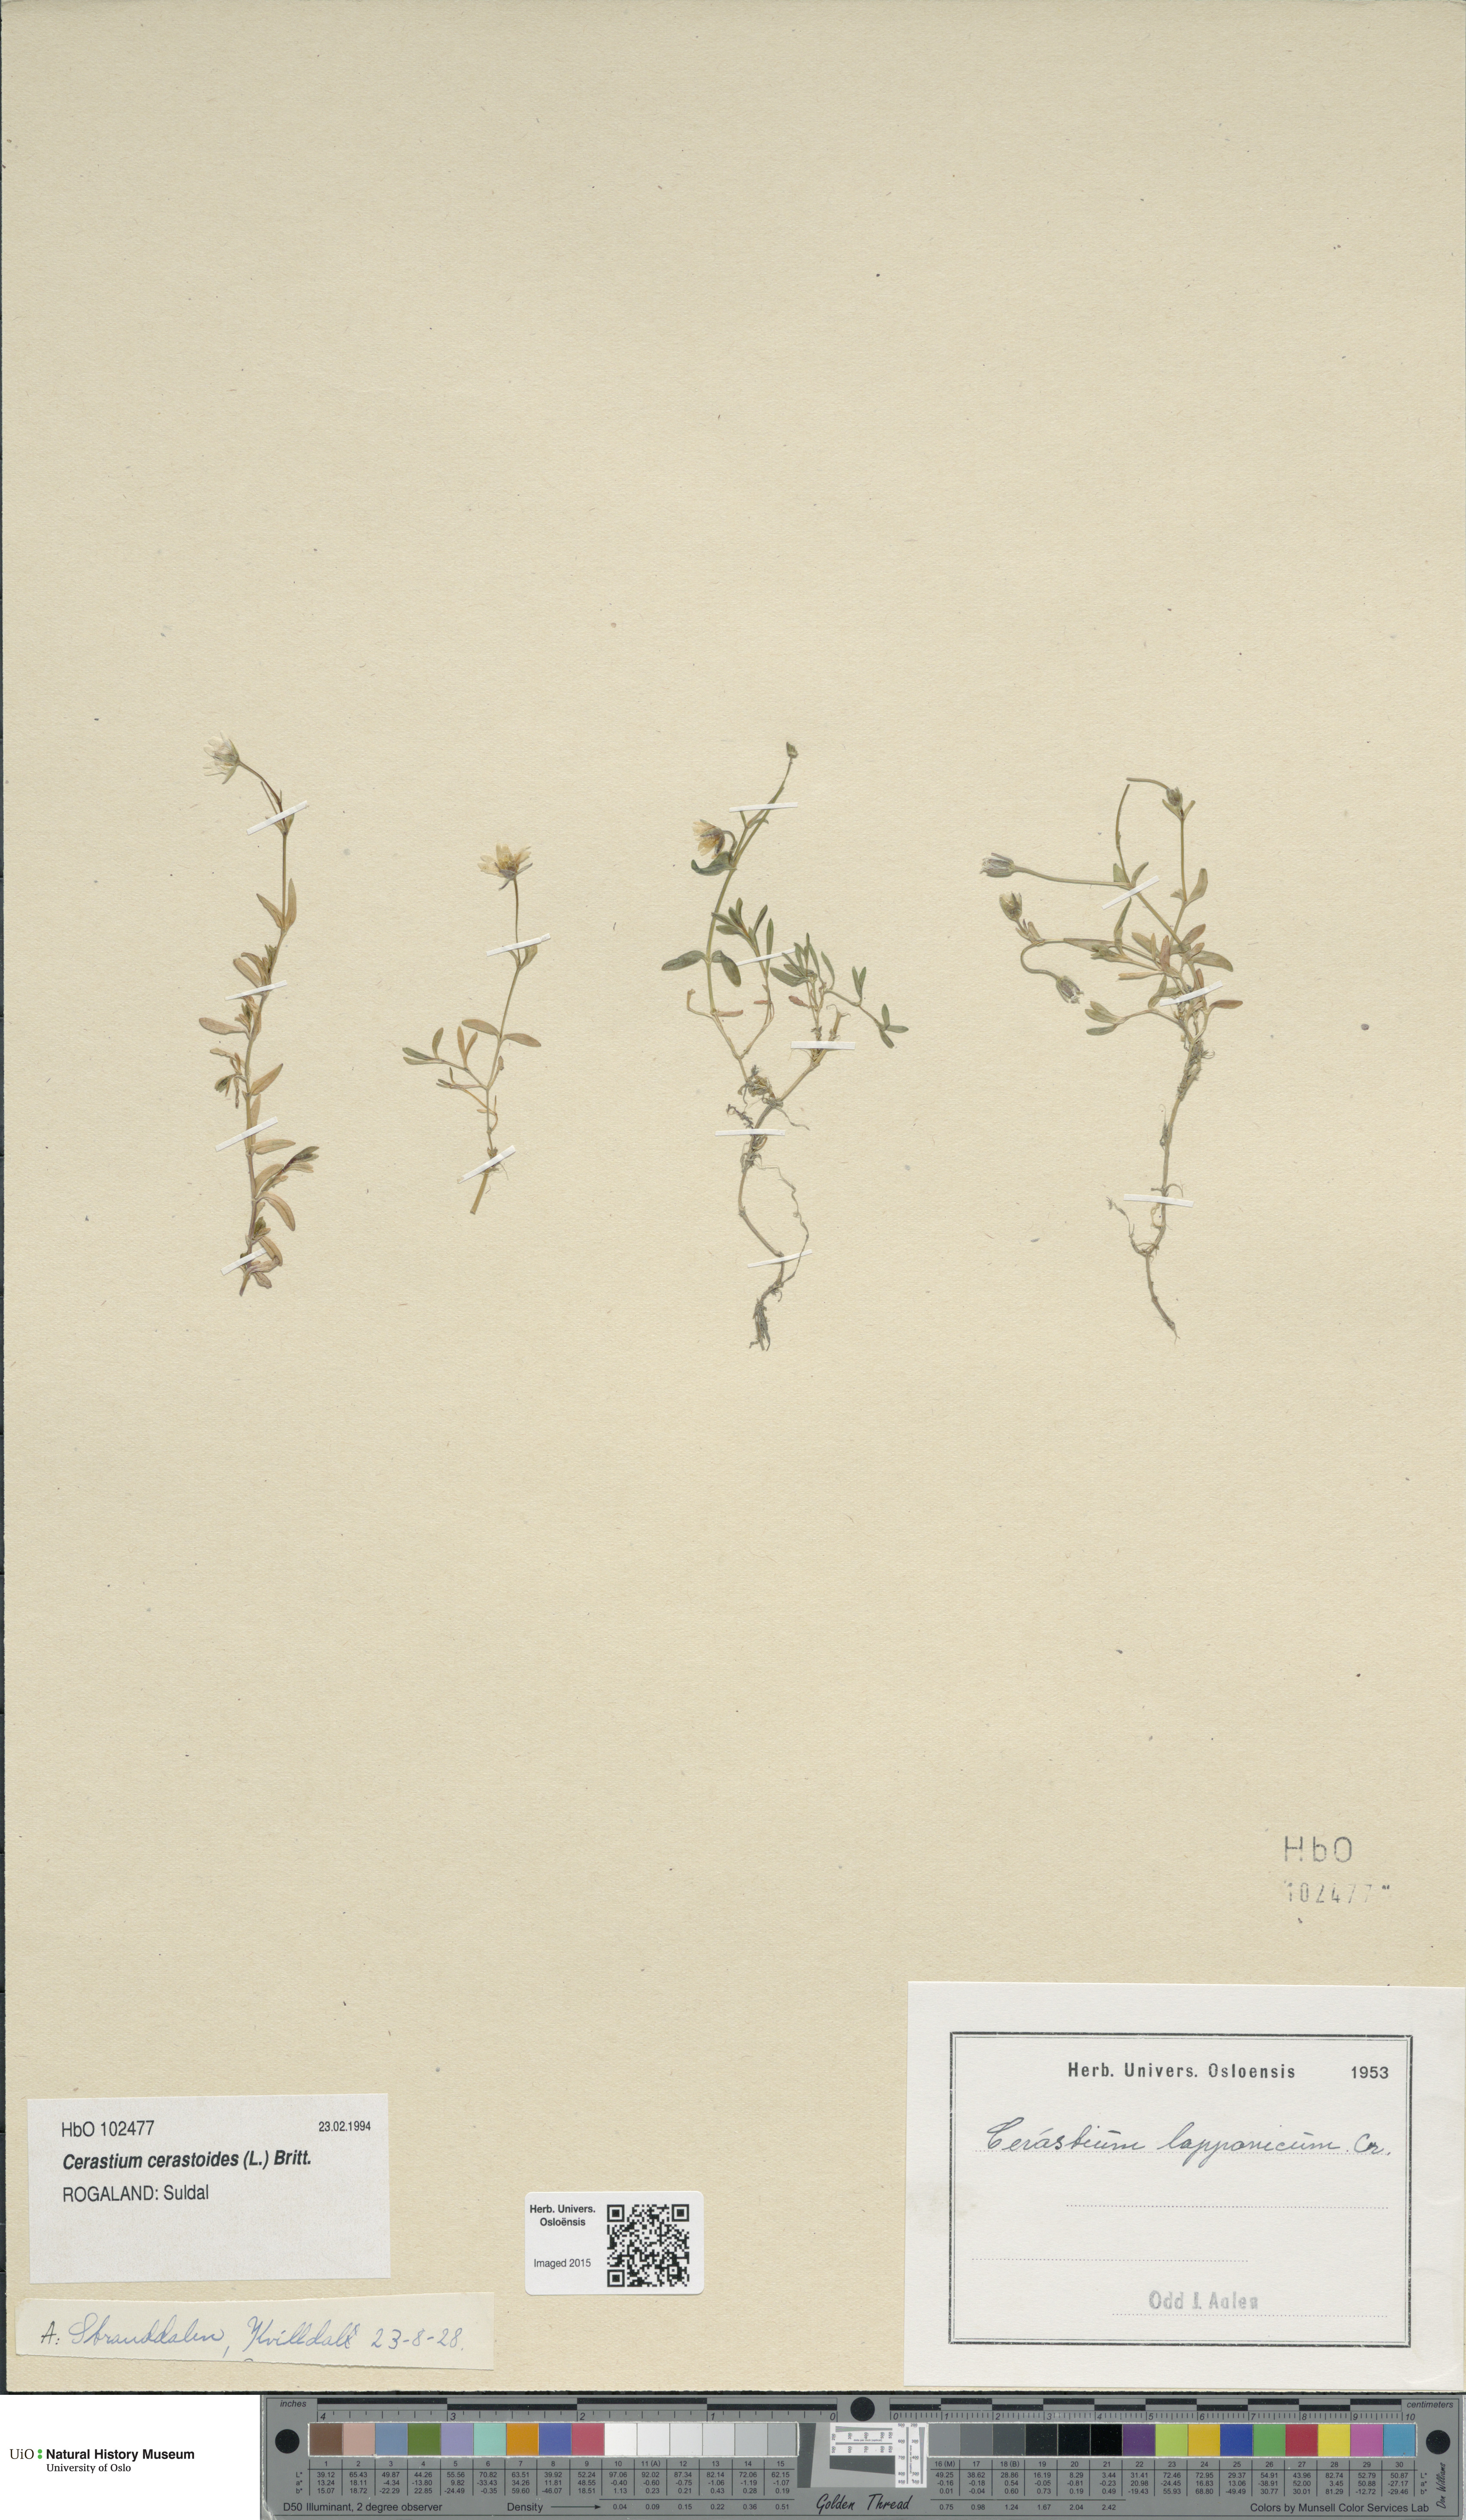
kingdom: Plantae
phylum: Tracheophyta
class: Magnoliopsida
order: Caryophyllales
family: Caryophyllaceae
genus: Dichodon
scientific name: Dichodon cerastoides
